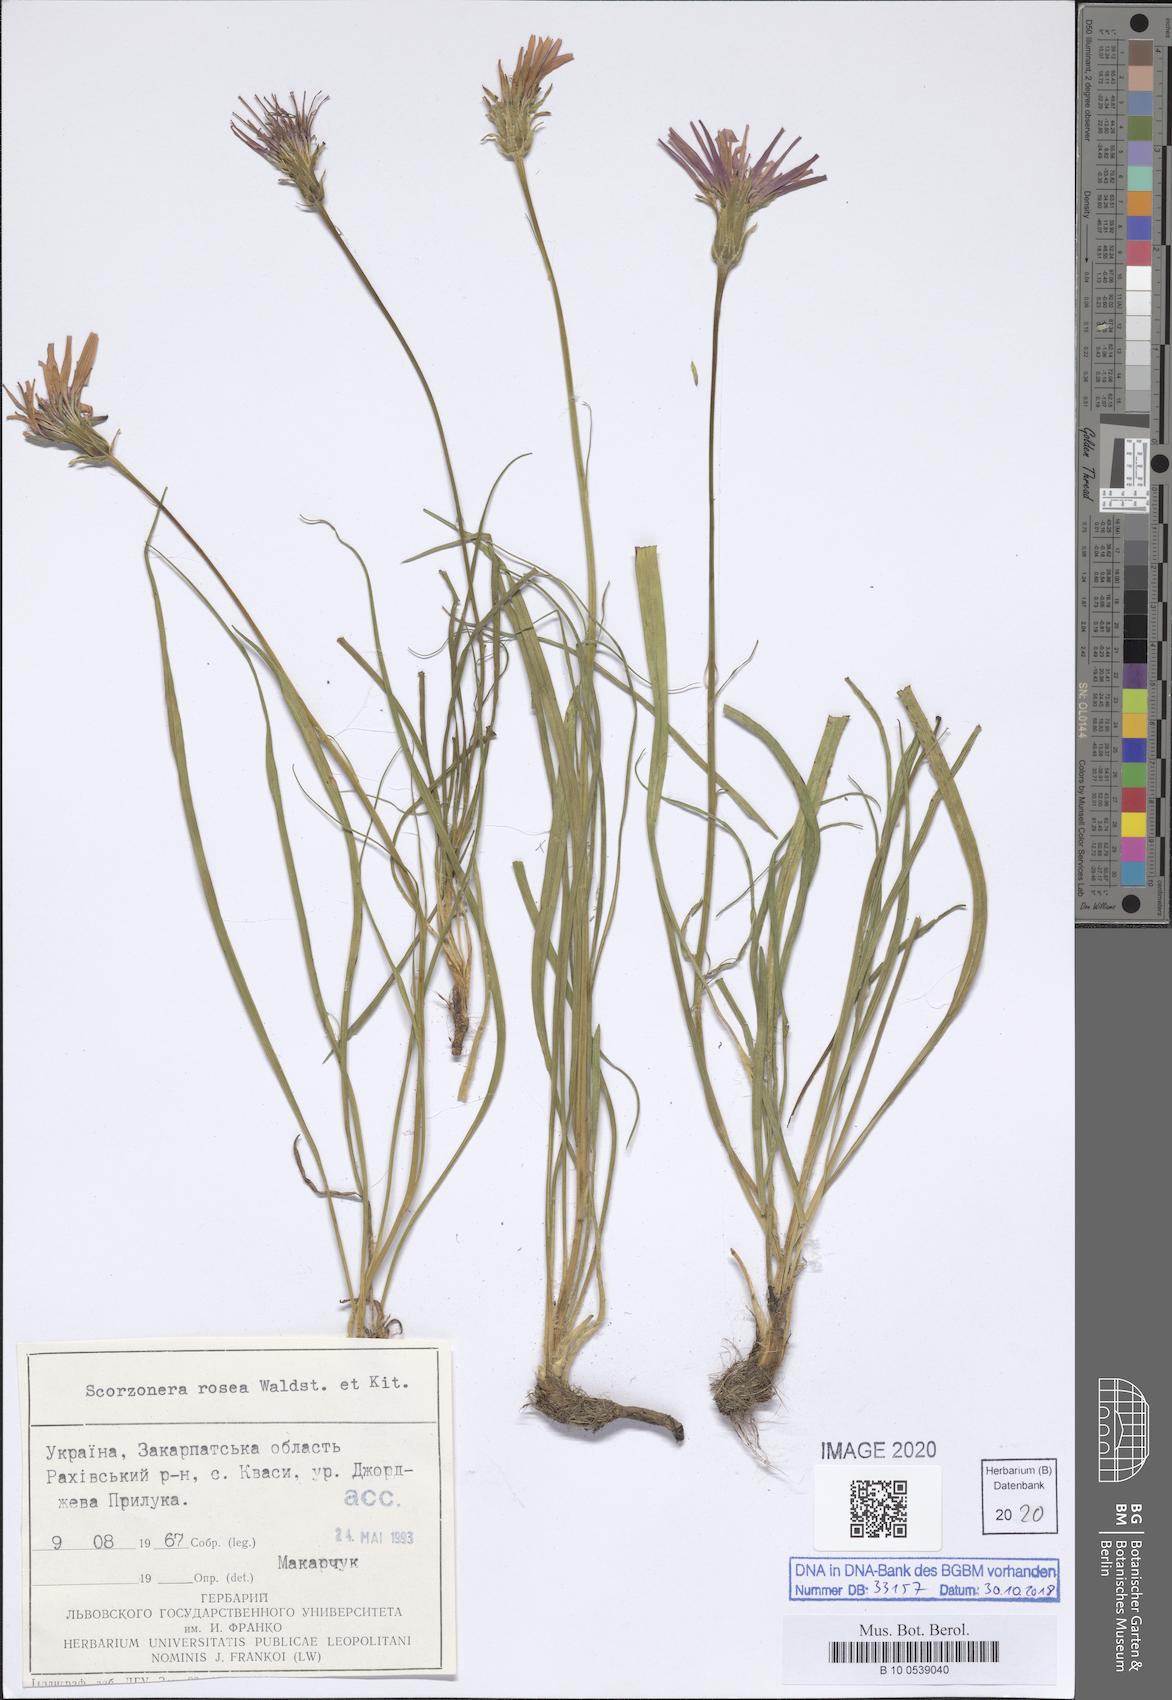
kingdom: Plantae
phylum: Tracheophyta
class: Magnoliopsida
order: Asterales
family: Asteraceae
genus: Scorzonera
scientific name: Scorzonera rosea
